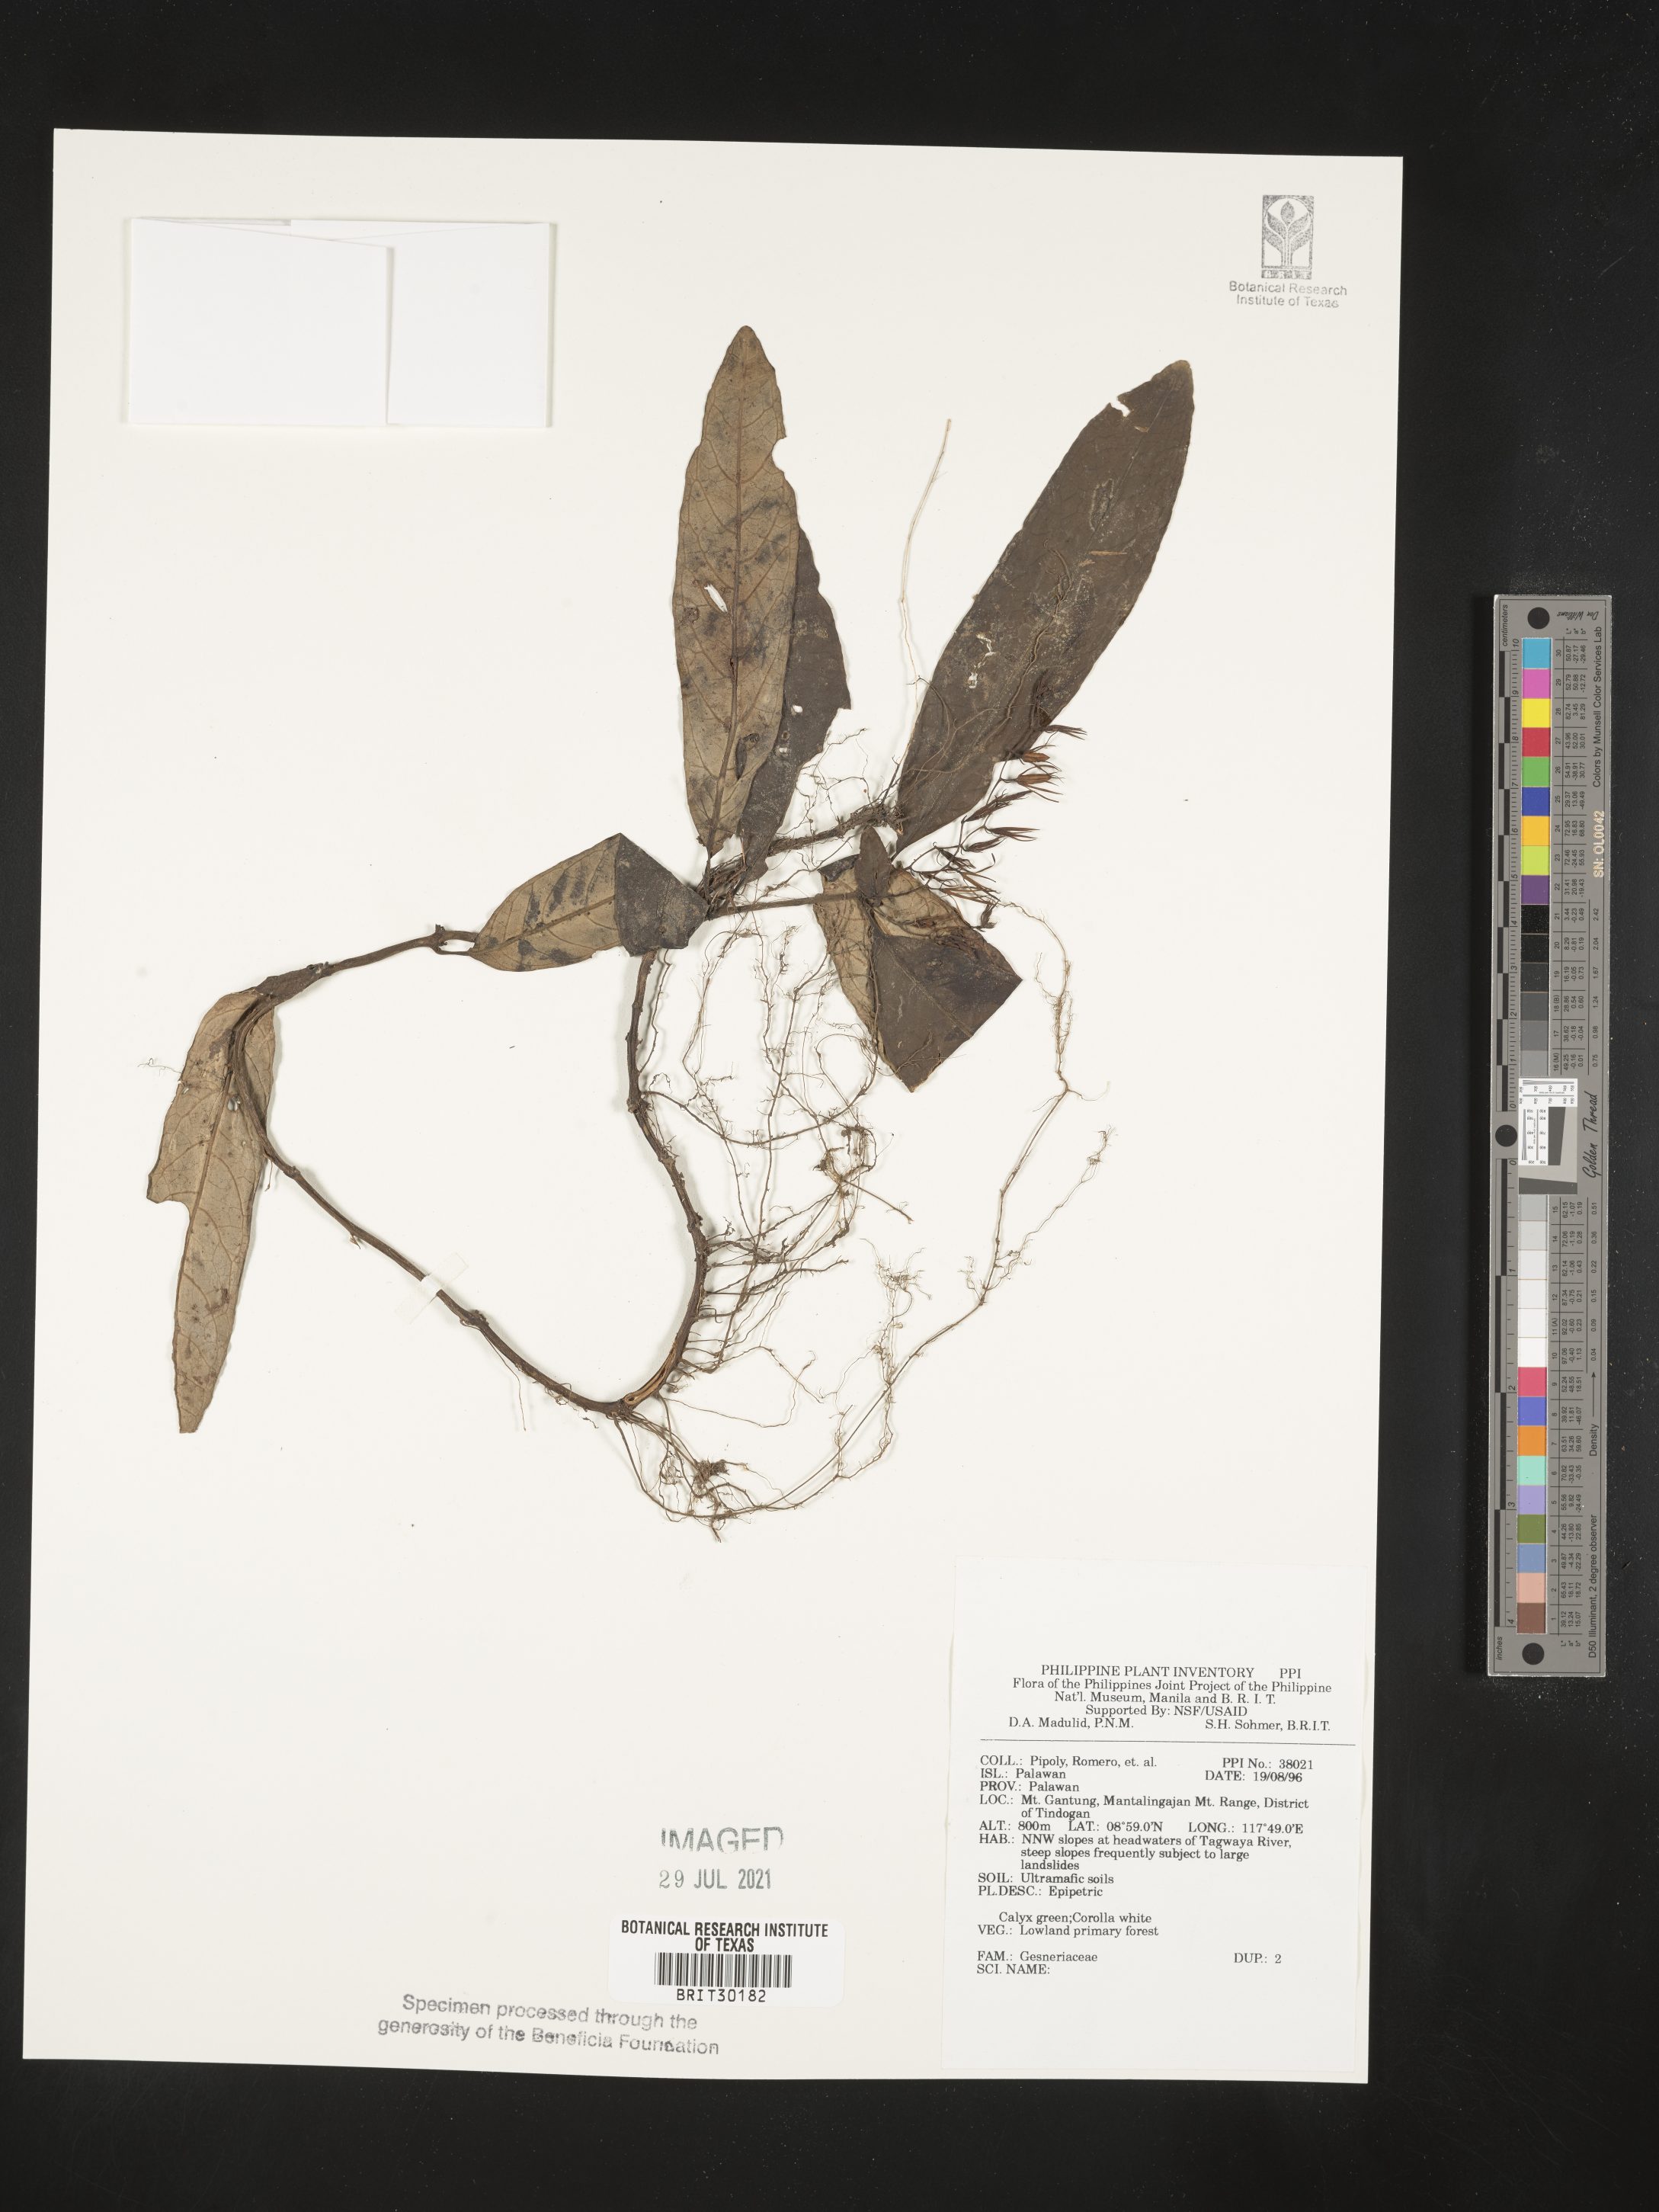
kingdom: Plantae
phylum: Tracheophyta
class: Magnoliopsida
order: Lamiales
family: Gesneriaceae
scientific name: Gesneriaceae
